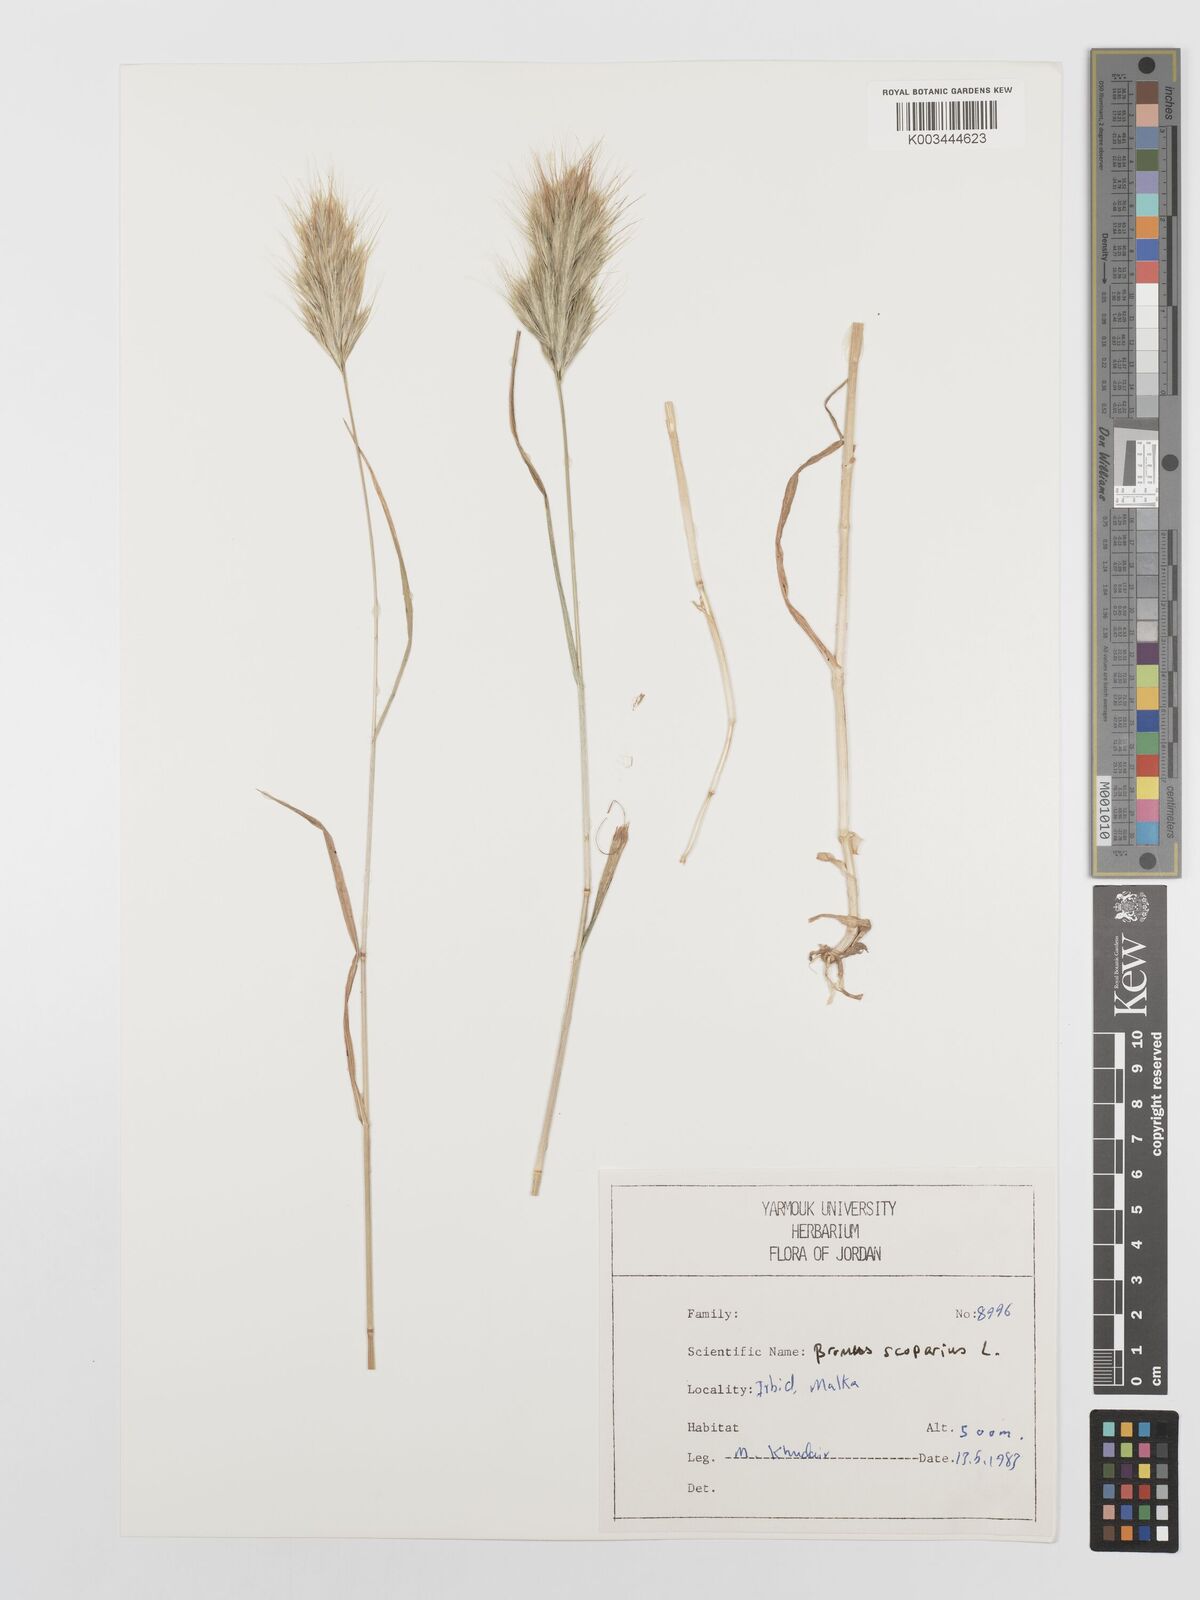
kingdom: Plantae
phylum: Tracheophyta
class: Liliopsida
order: Poales
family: Poaceae
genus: Bromus
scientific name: Bromus scoparius
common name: Broom brome
